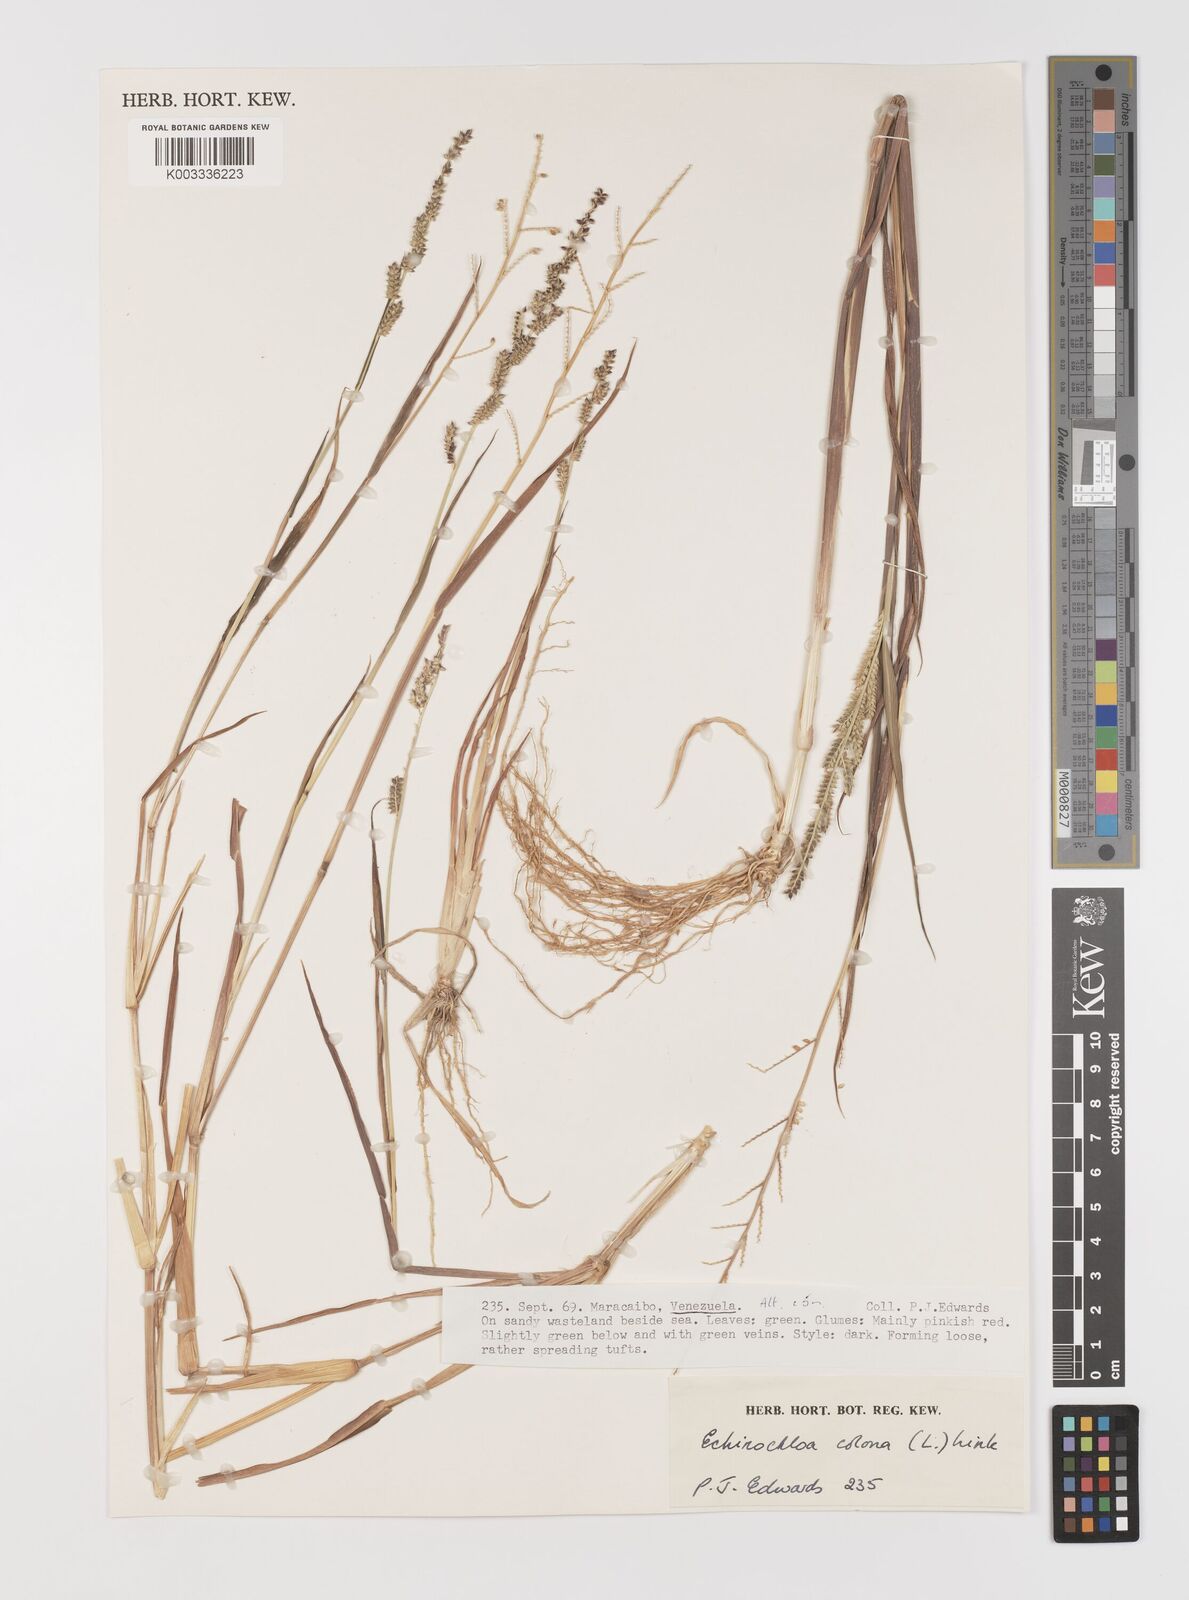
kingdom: Plantae
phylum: Tracheophyta
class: Liliopsida
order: Poales
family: Poaceae
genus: Echinochloa
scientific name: Echinochloa colonum
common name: Jungle rice
